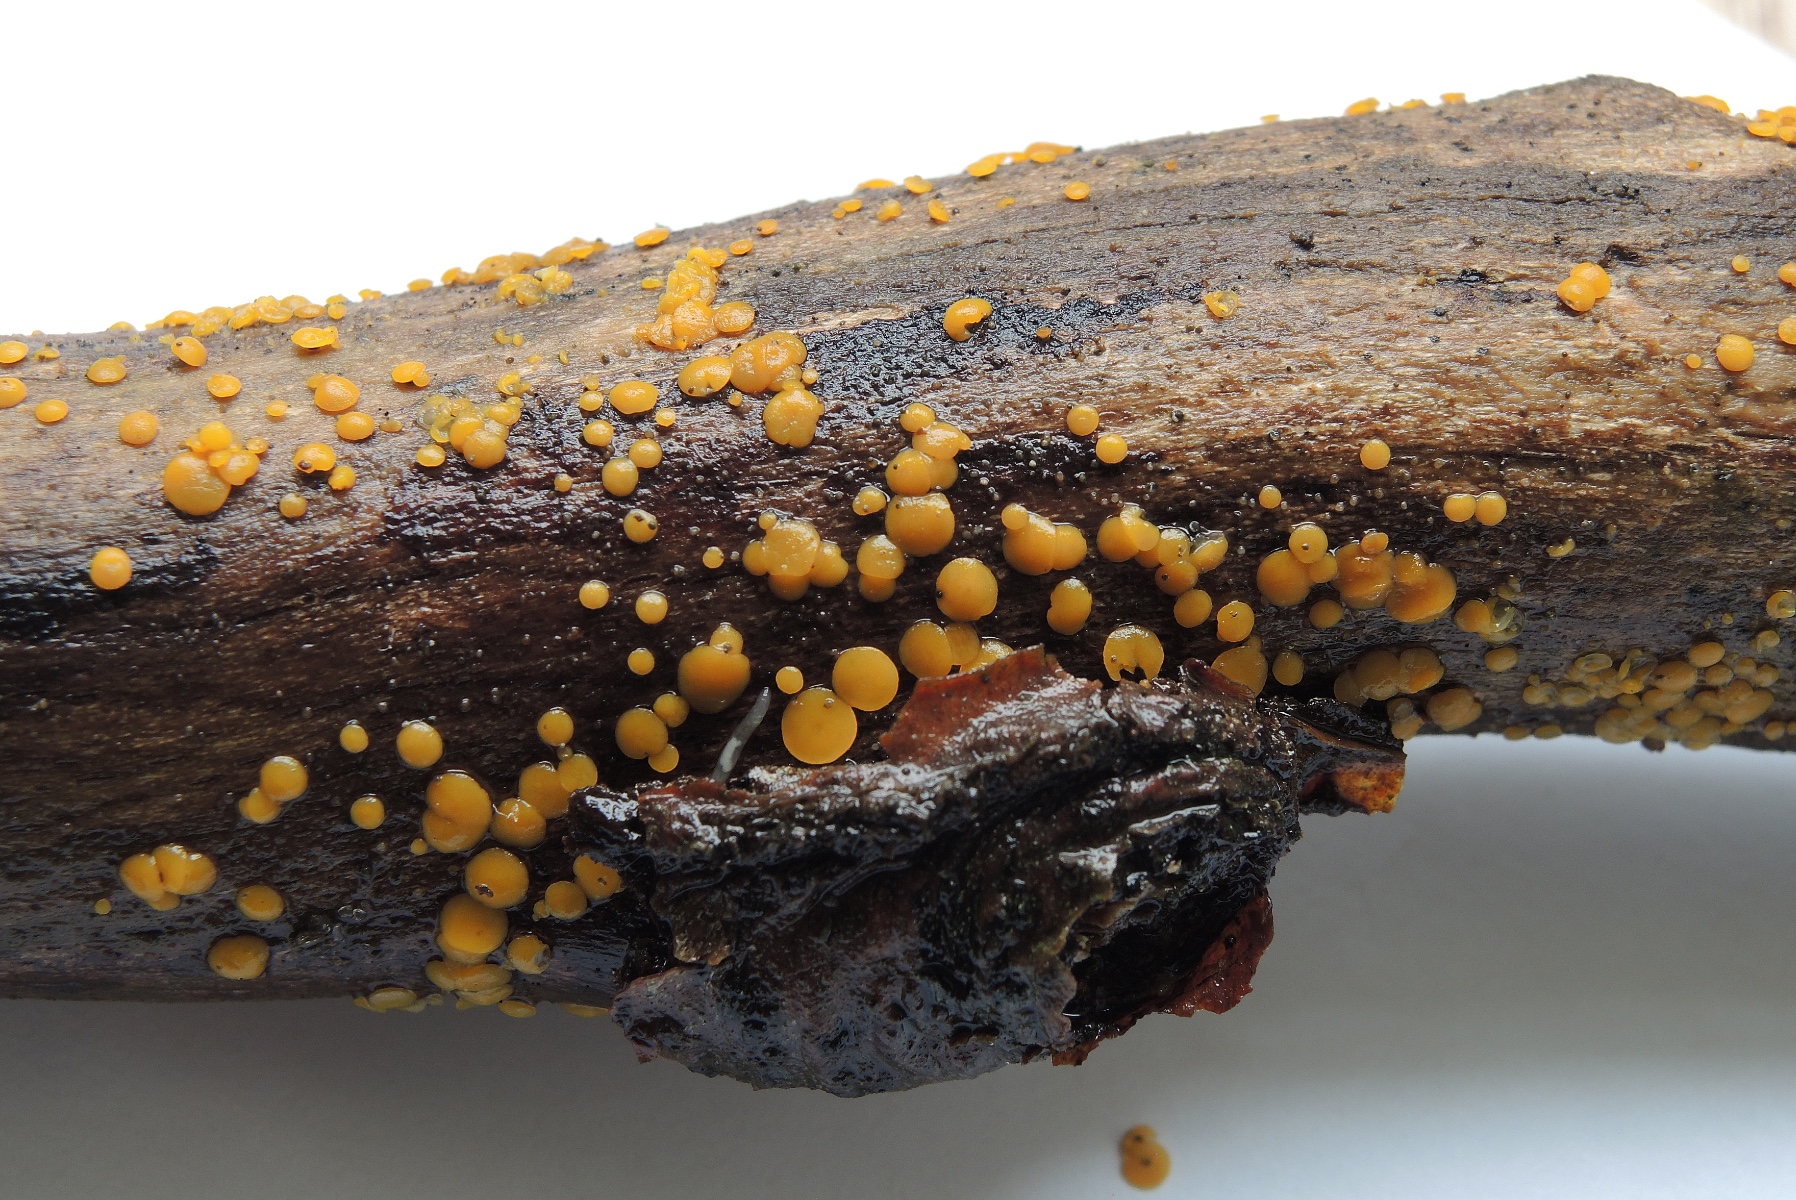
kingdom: Fungi
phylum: Ascomycota
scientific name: Ascomycota
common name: sæksvampe
